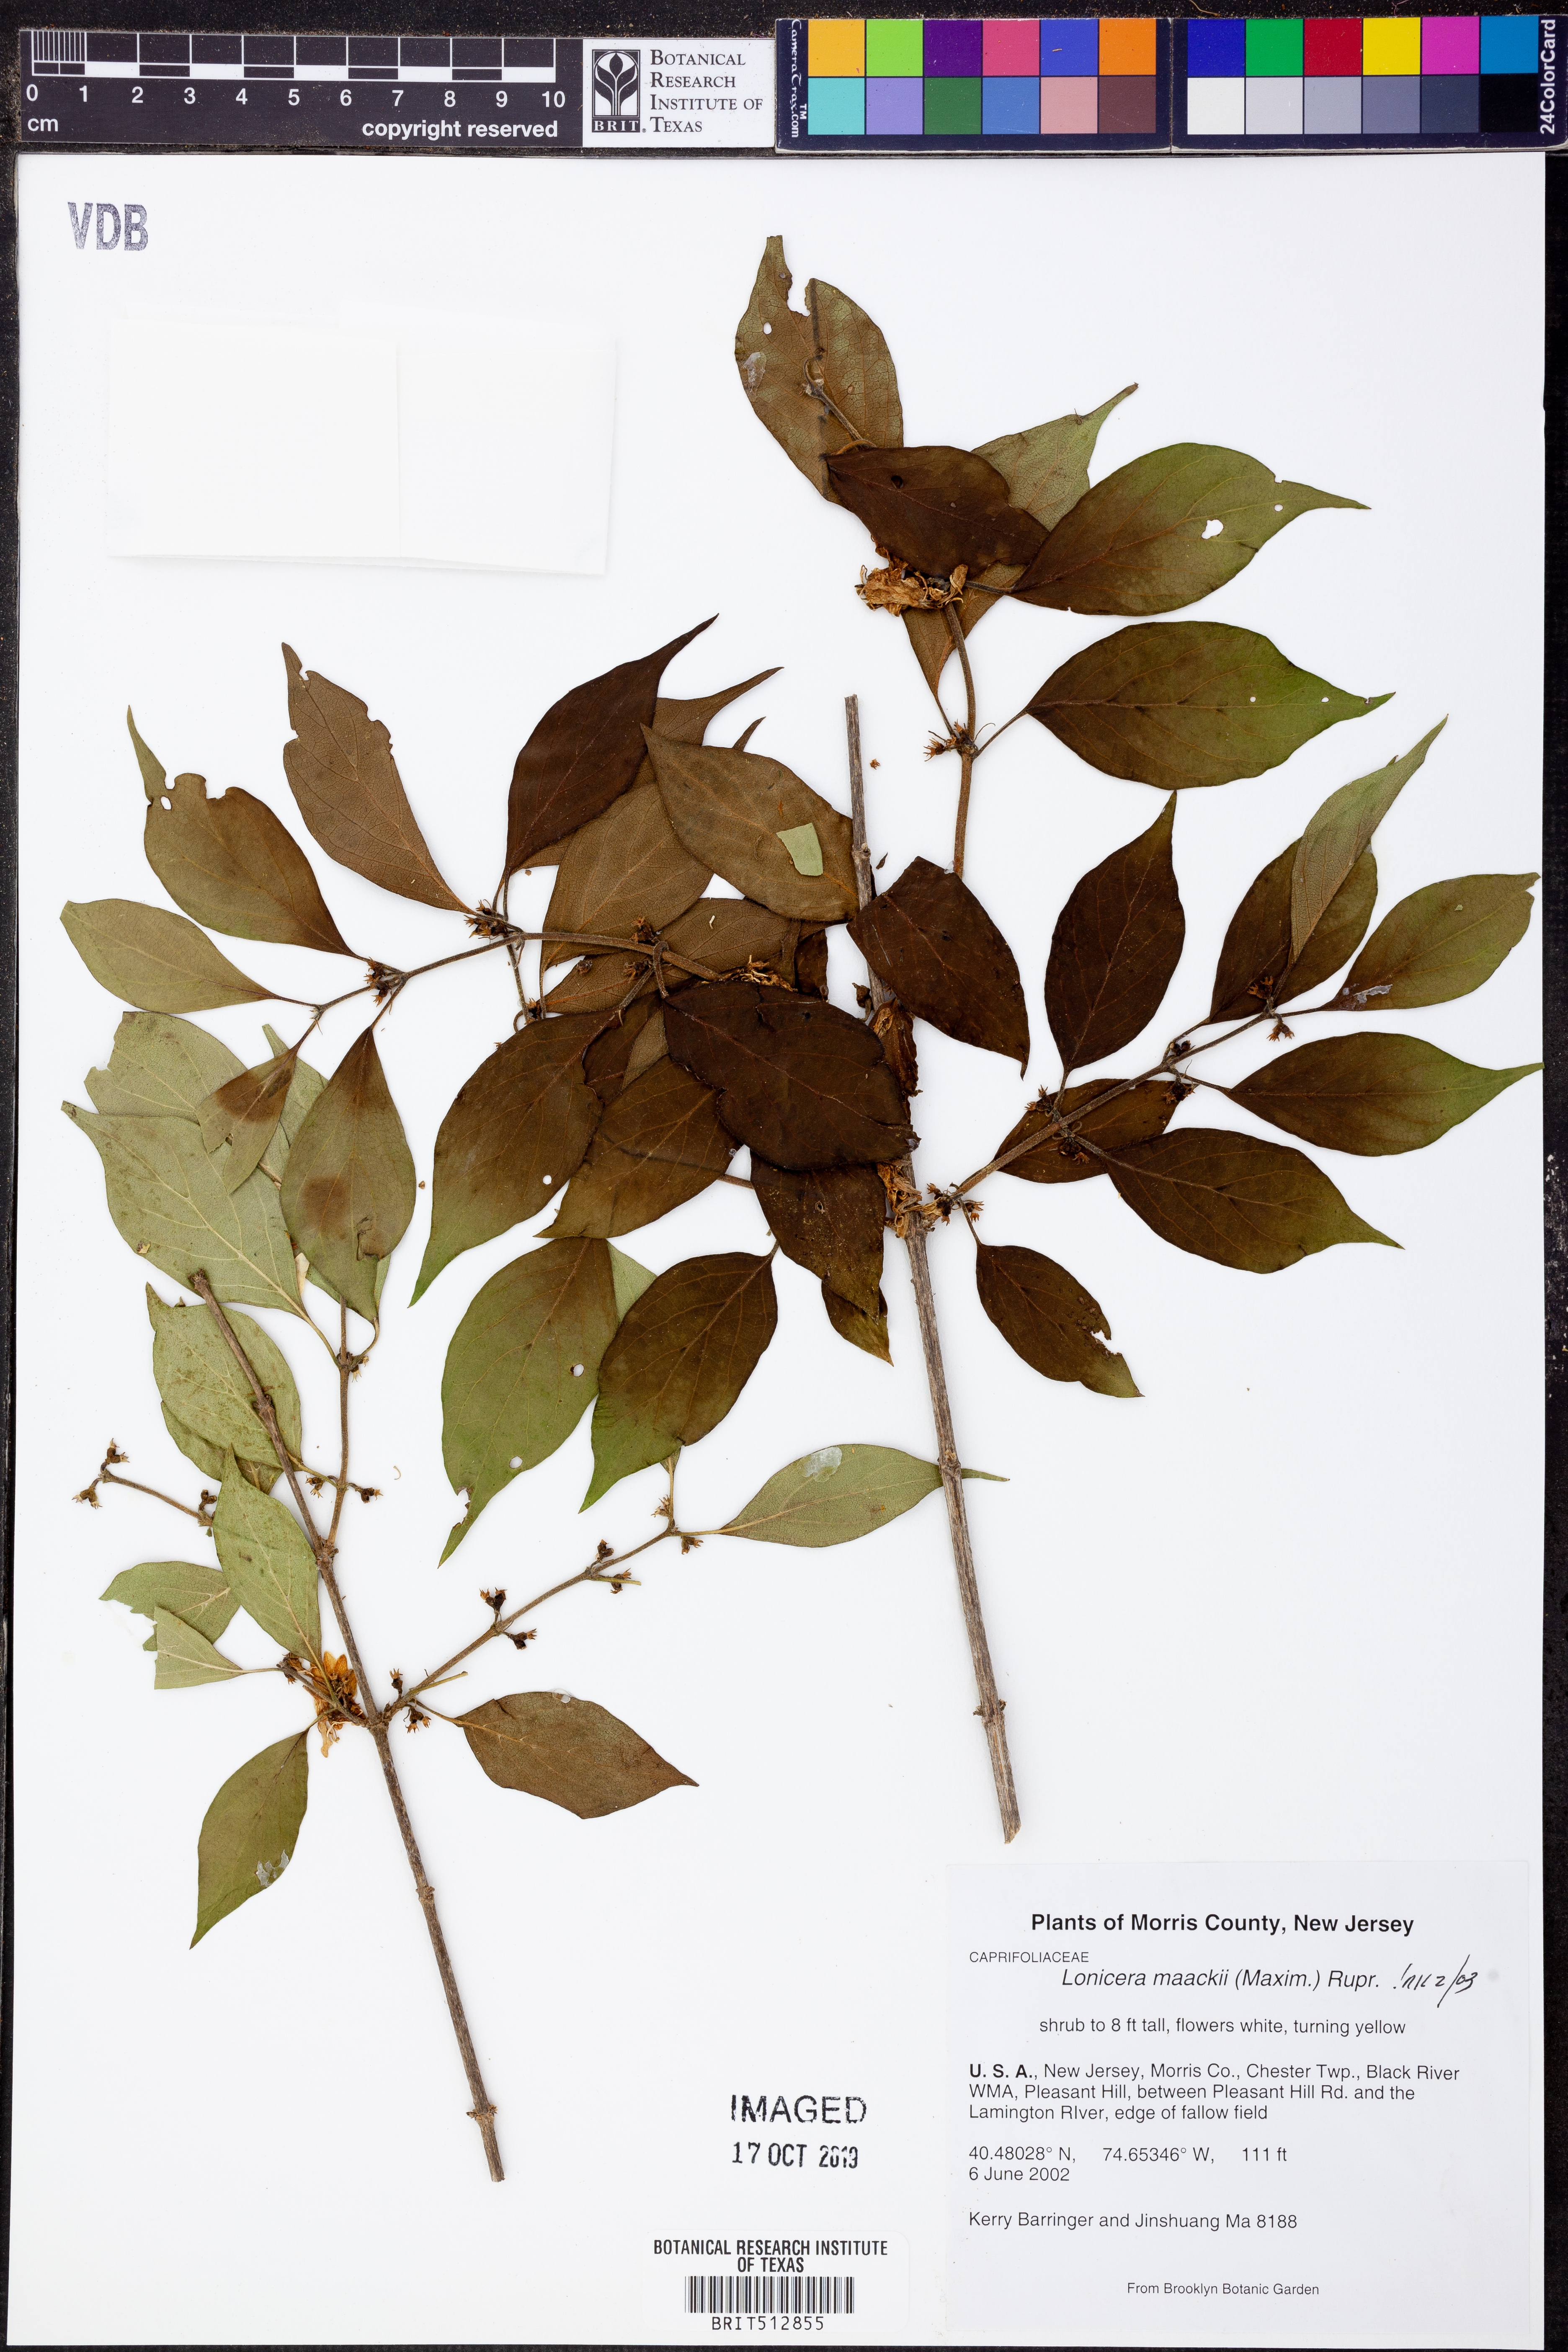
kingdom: Plantae
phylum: Tracheophyta
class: Magnoliopsida
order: Dipsacales
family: Caprifoliaceae
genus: Lonicera
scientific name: Lonicera maackii
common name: Amur honeysuckle
